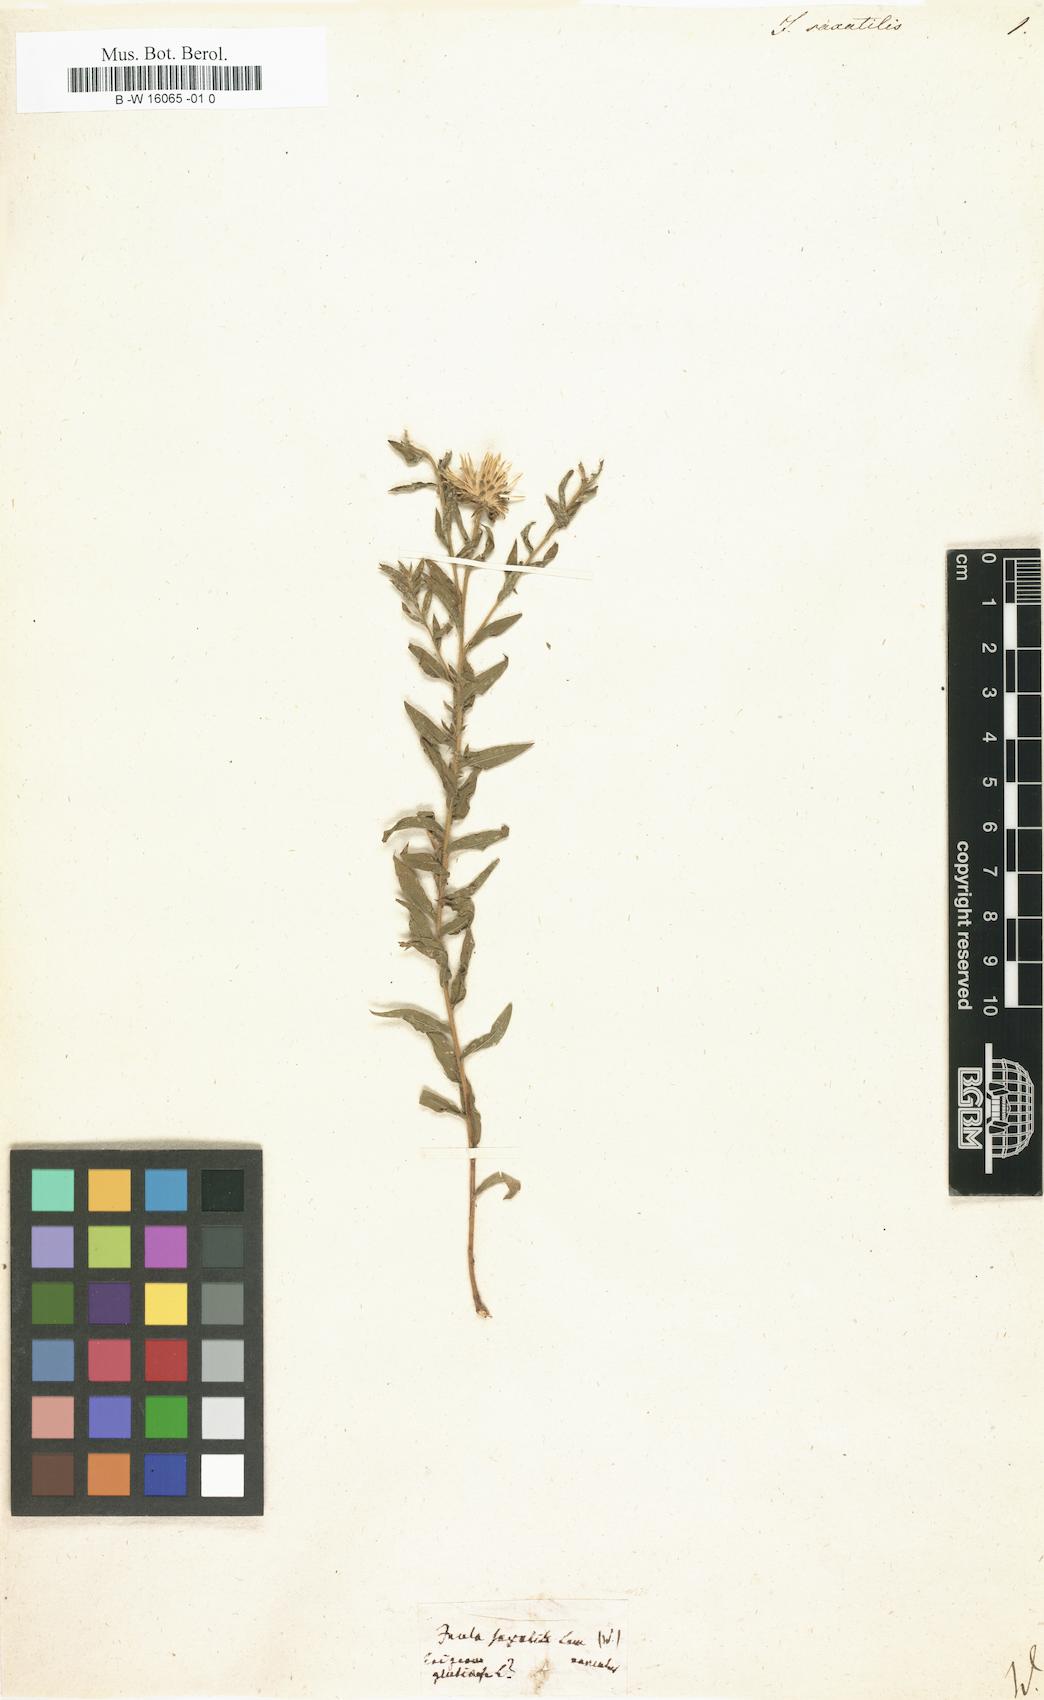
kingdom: Plantae
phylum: Tracheophyta
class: Magnoliopsida
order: Asterales
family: Asteraceae
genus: Inula
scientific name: Inula saxatilis
